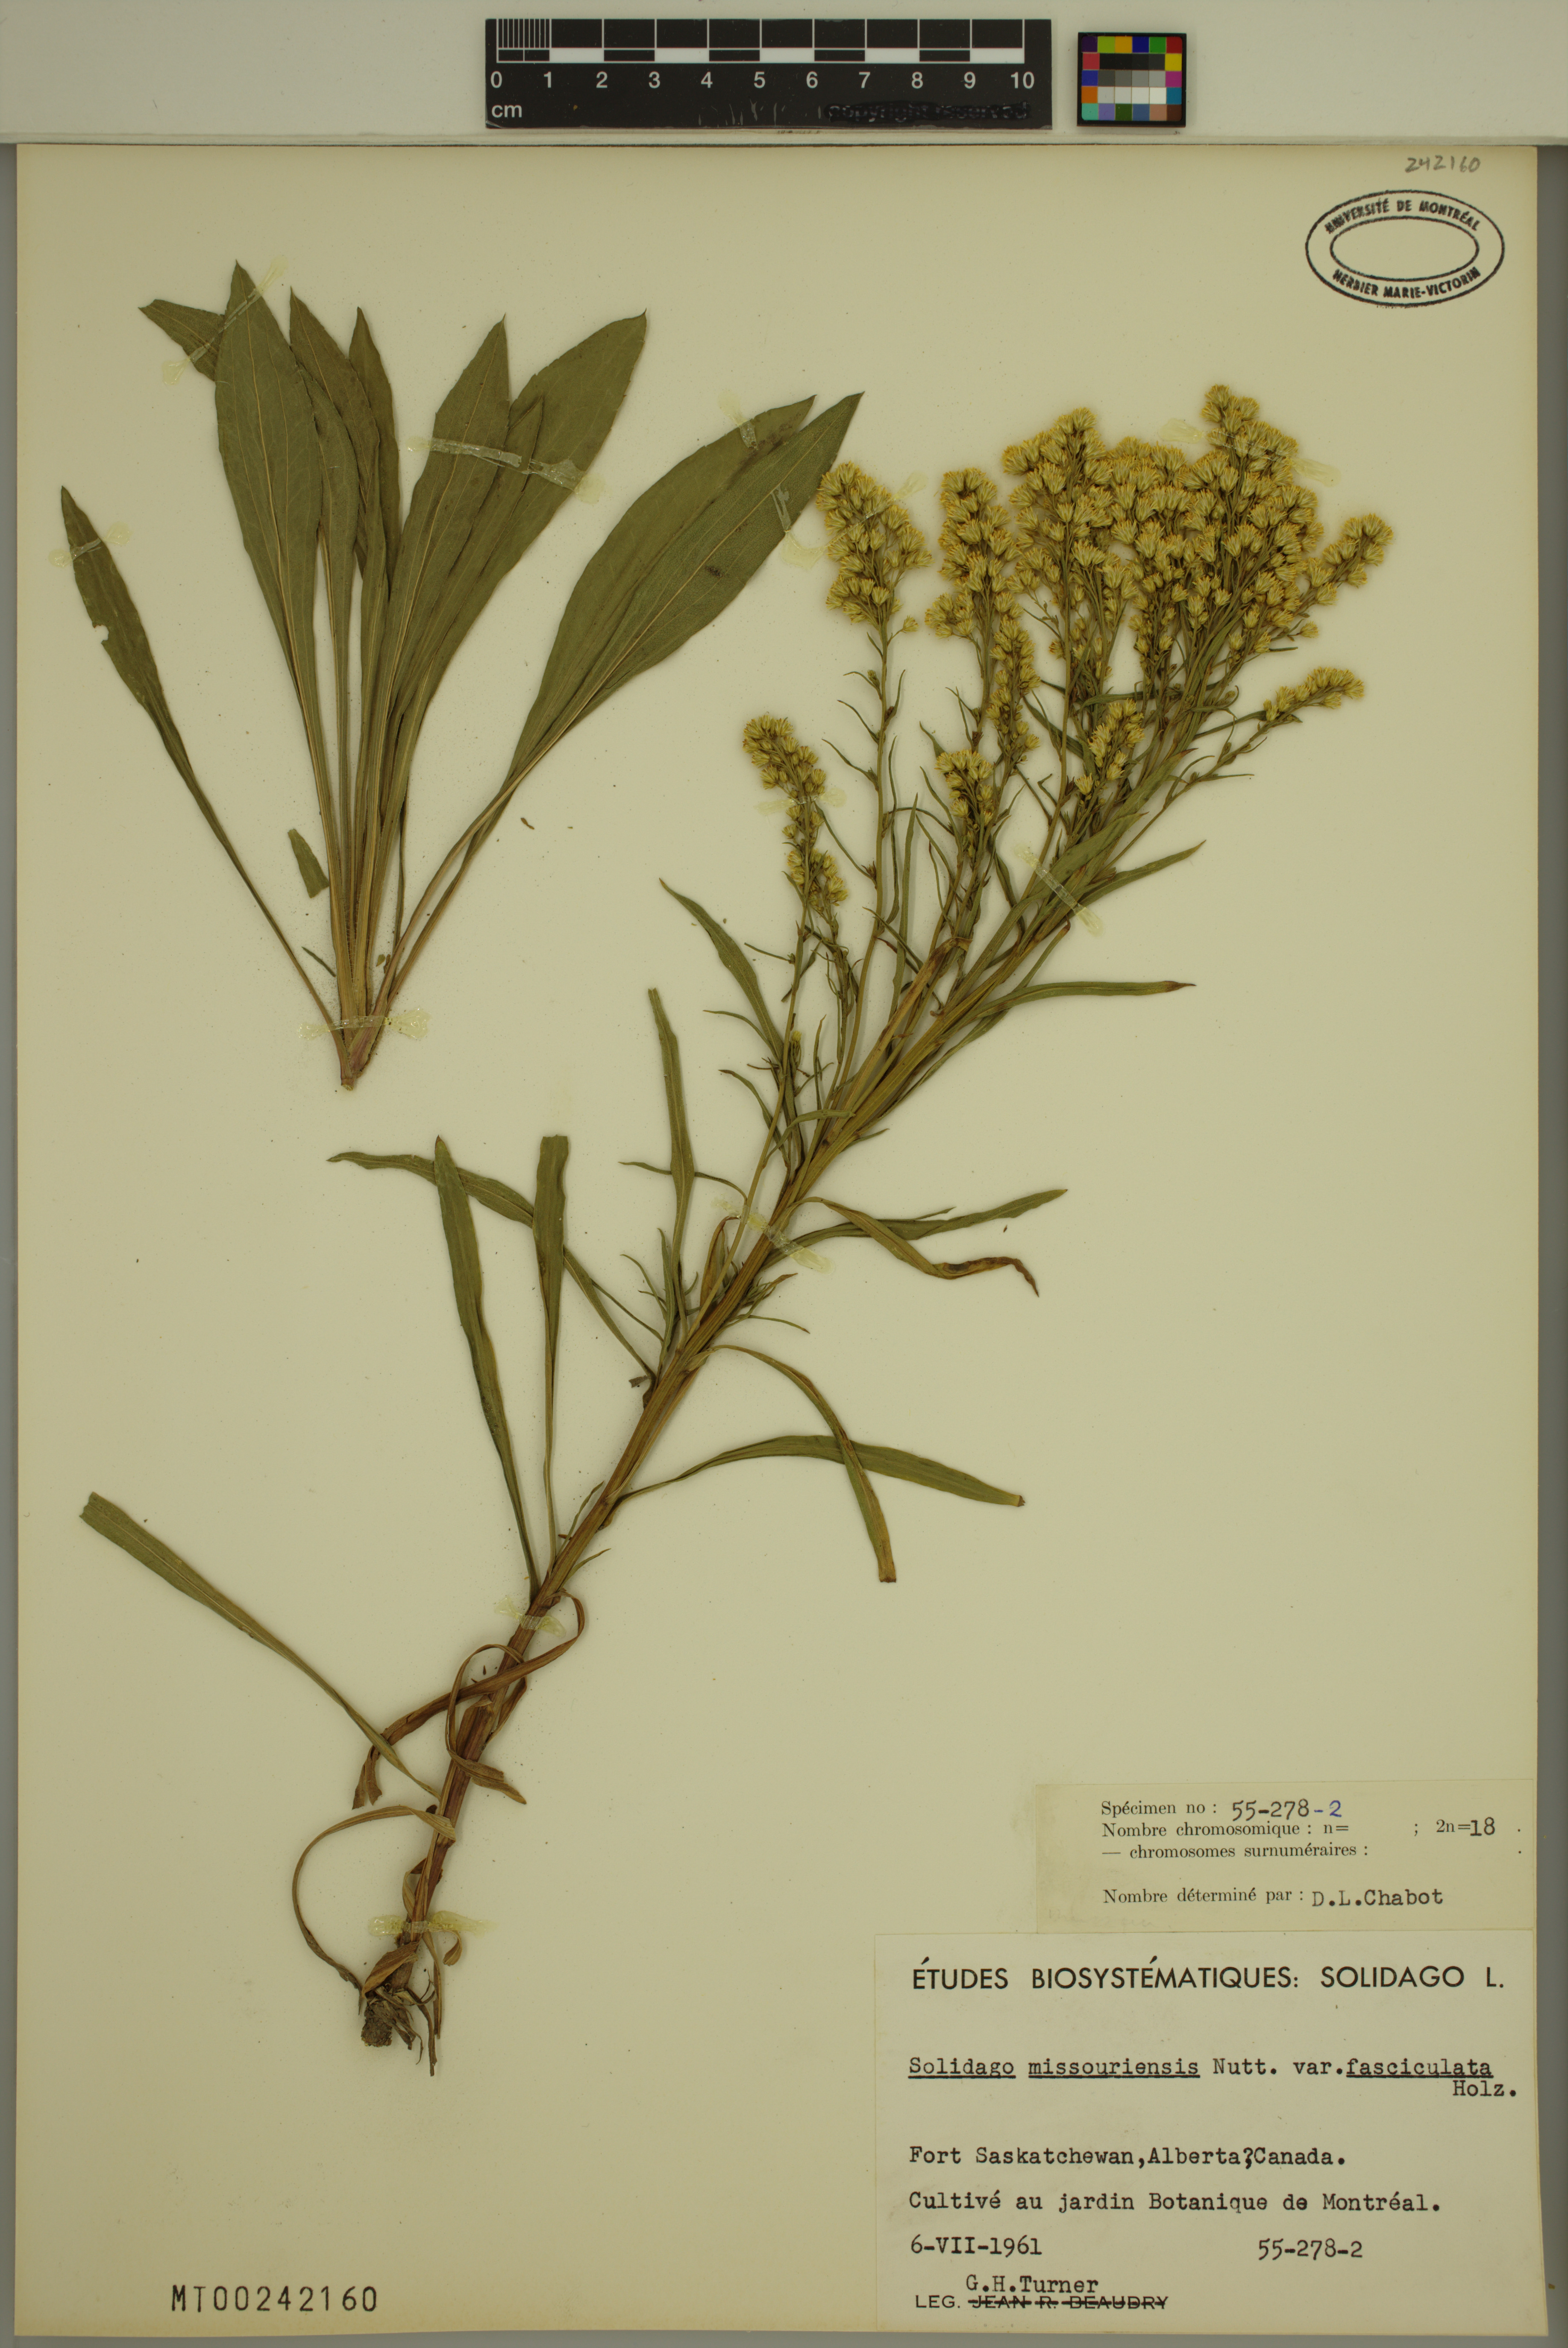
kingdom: Plantae
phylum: Tracheophyta
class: Magnoliopsida
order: Asterales
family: Asteraceae
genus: Solidago
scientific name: Solidago missouriensis
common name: Prairie goldenrod
